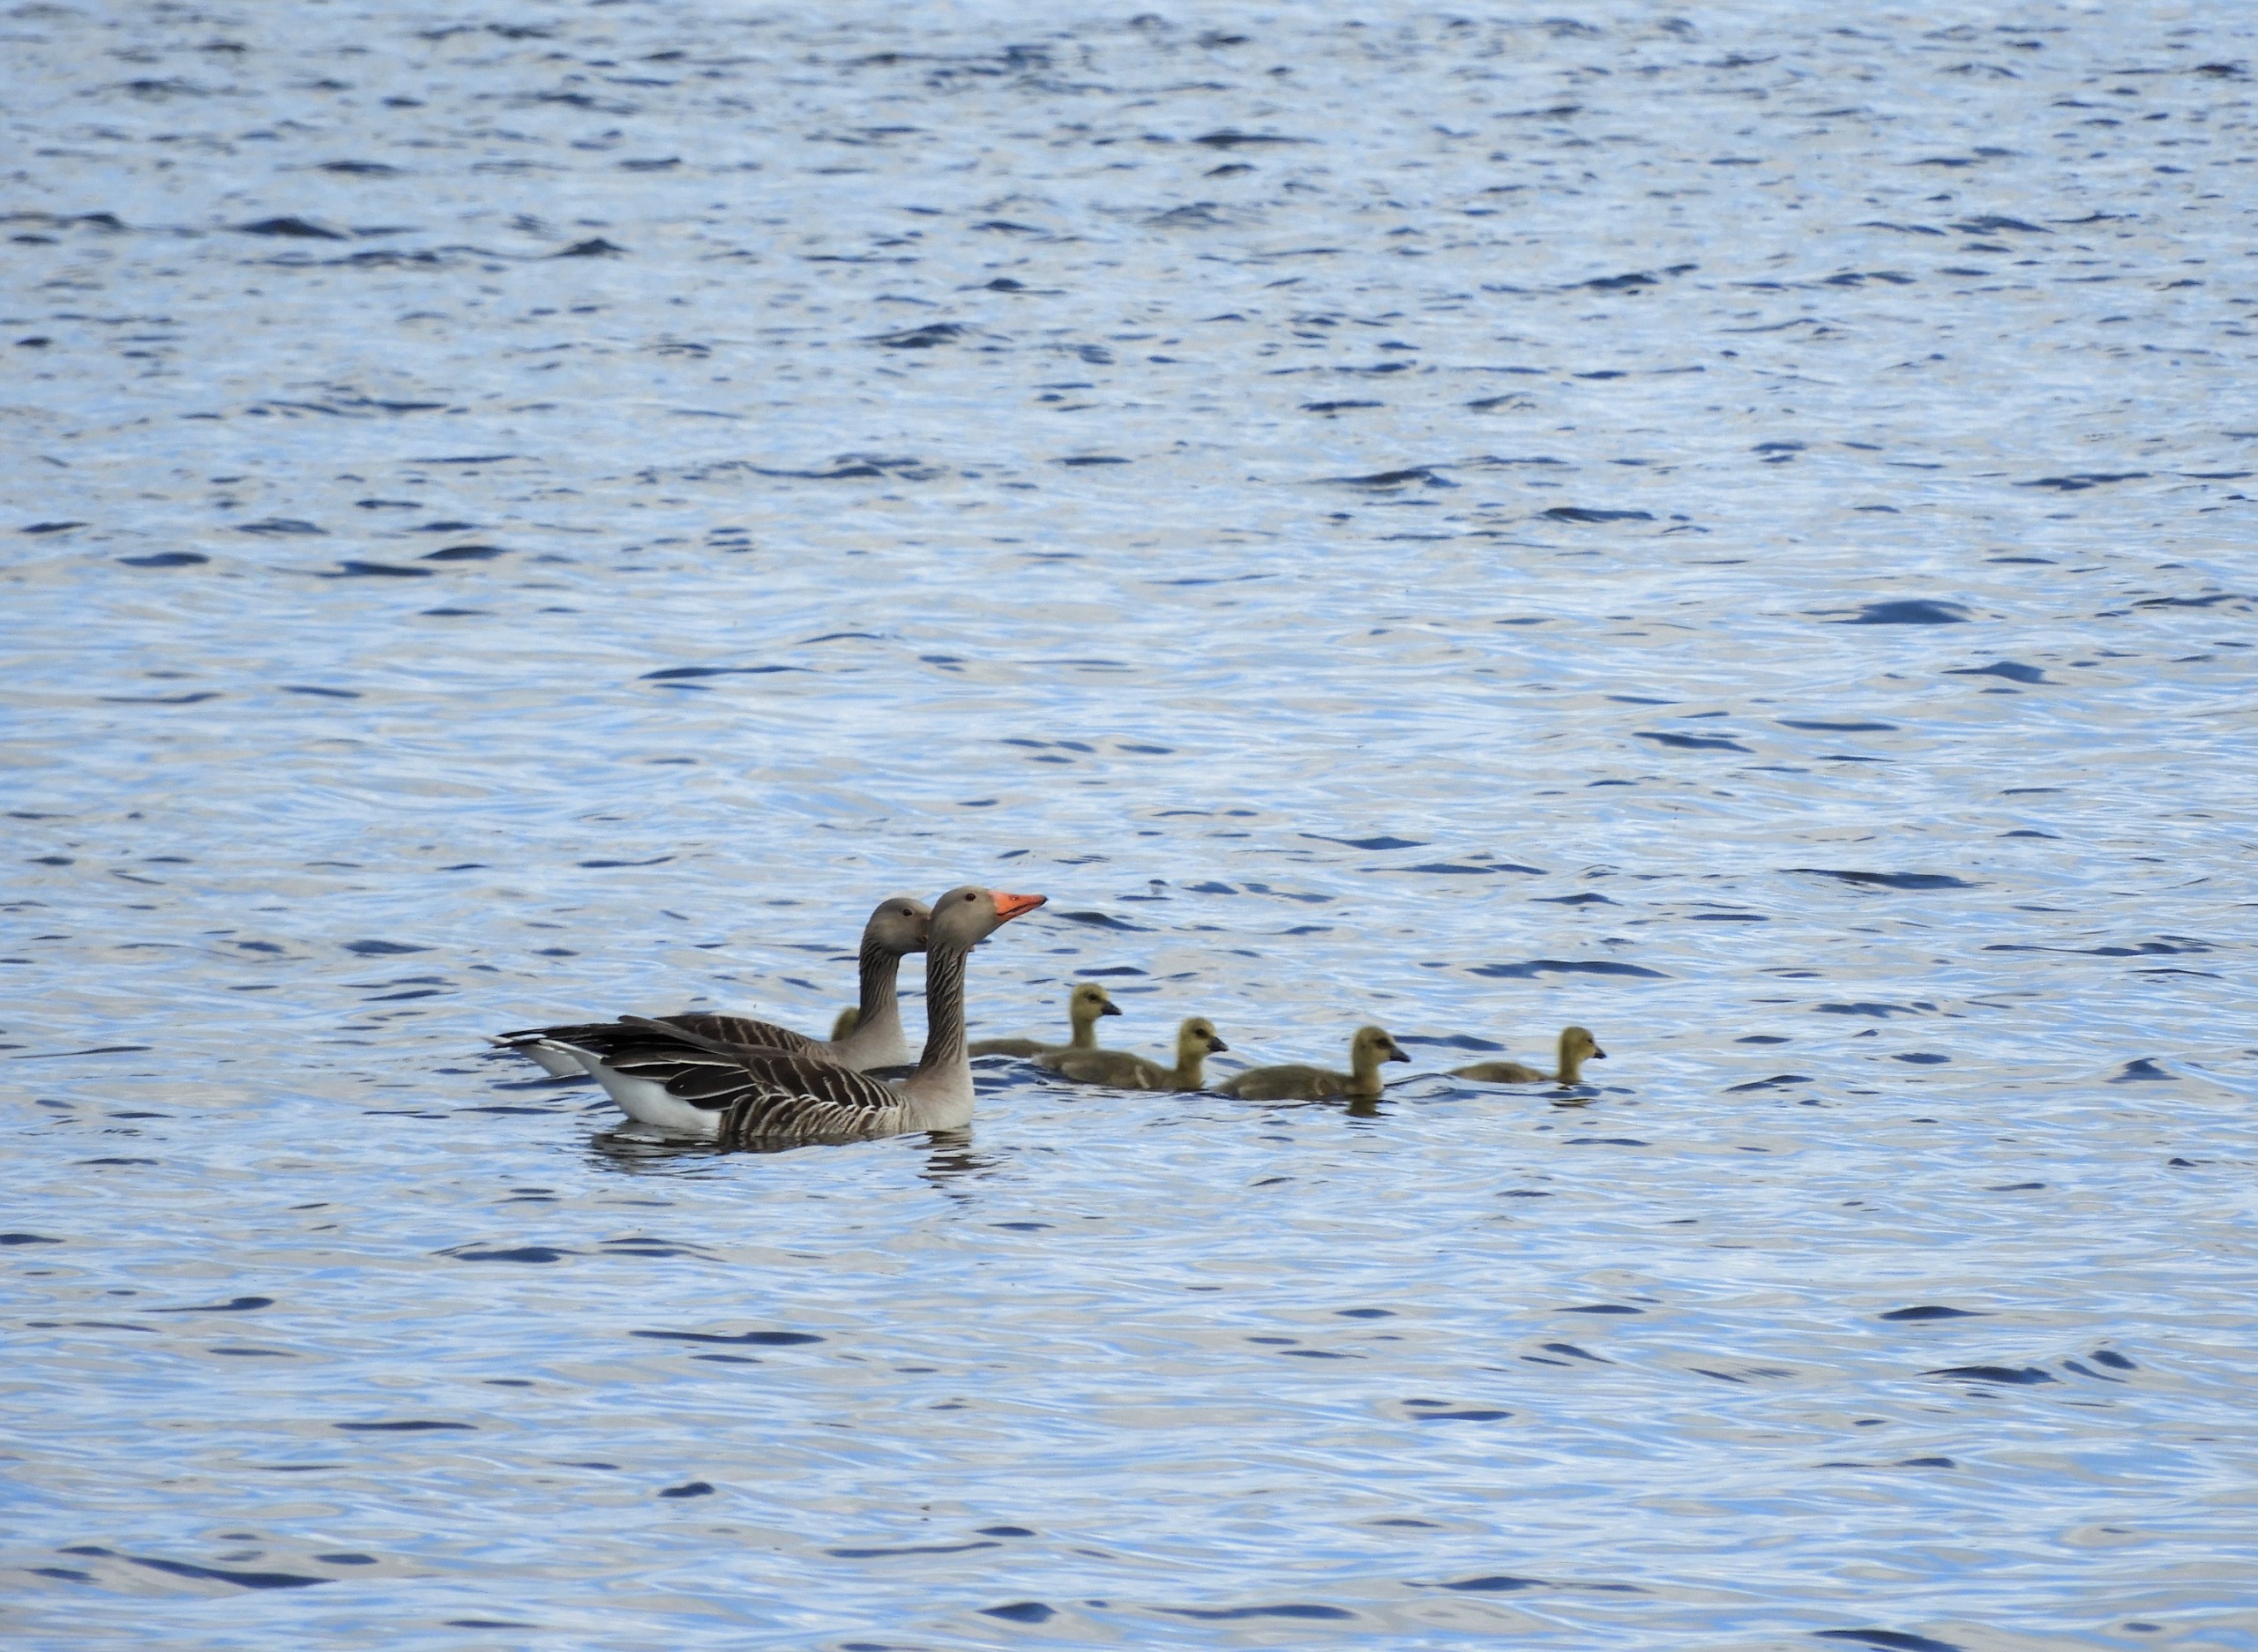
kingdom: Animalia
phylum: Chordata
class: Aves
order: Anseriformes
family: Anatidae
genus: Anser
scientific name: Anser anser
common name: Grågås
